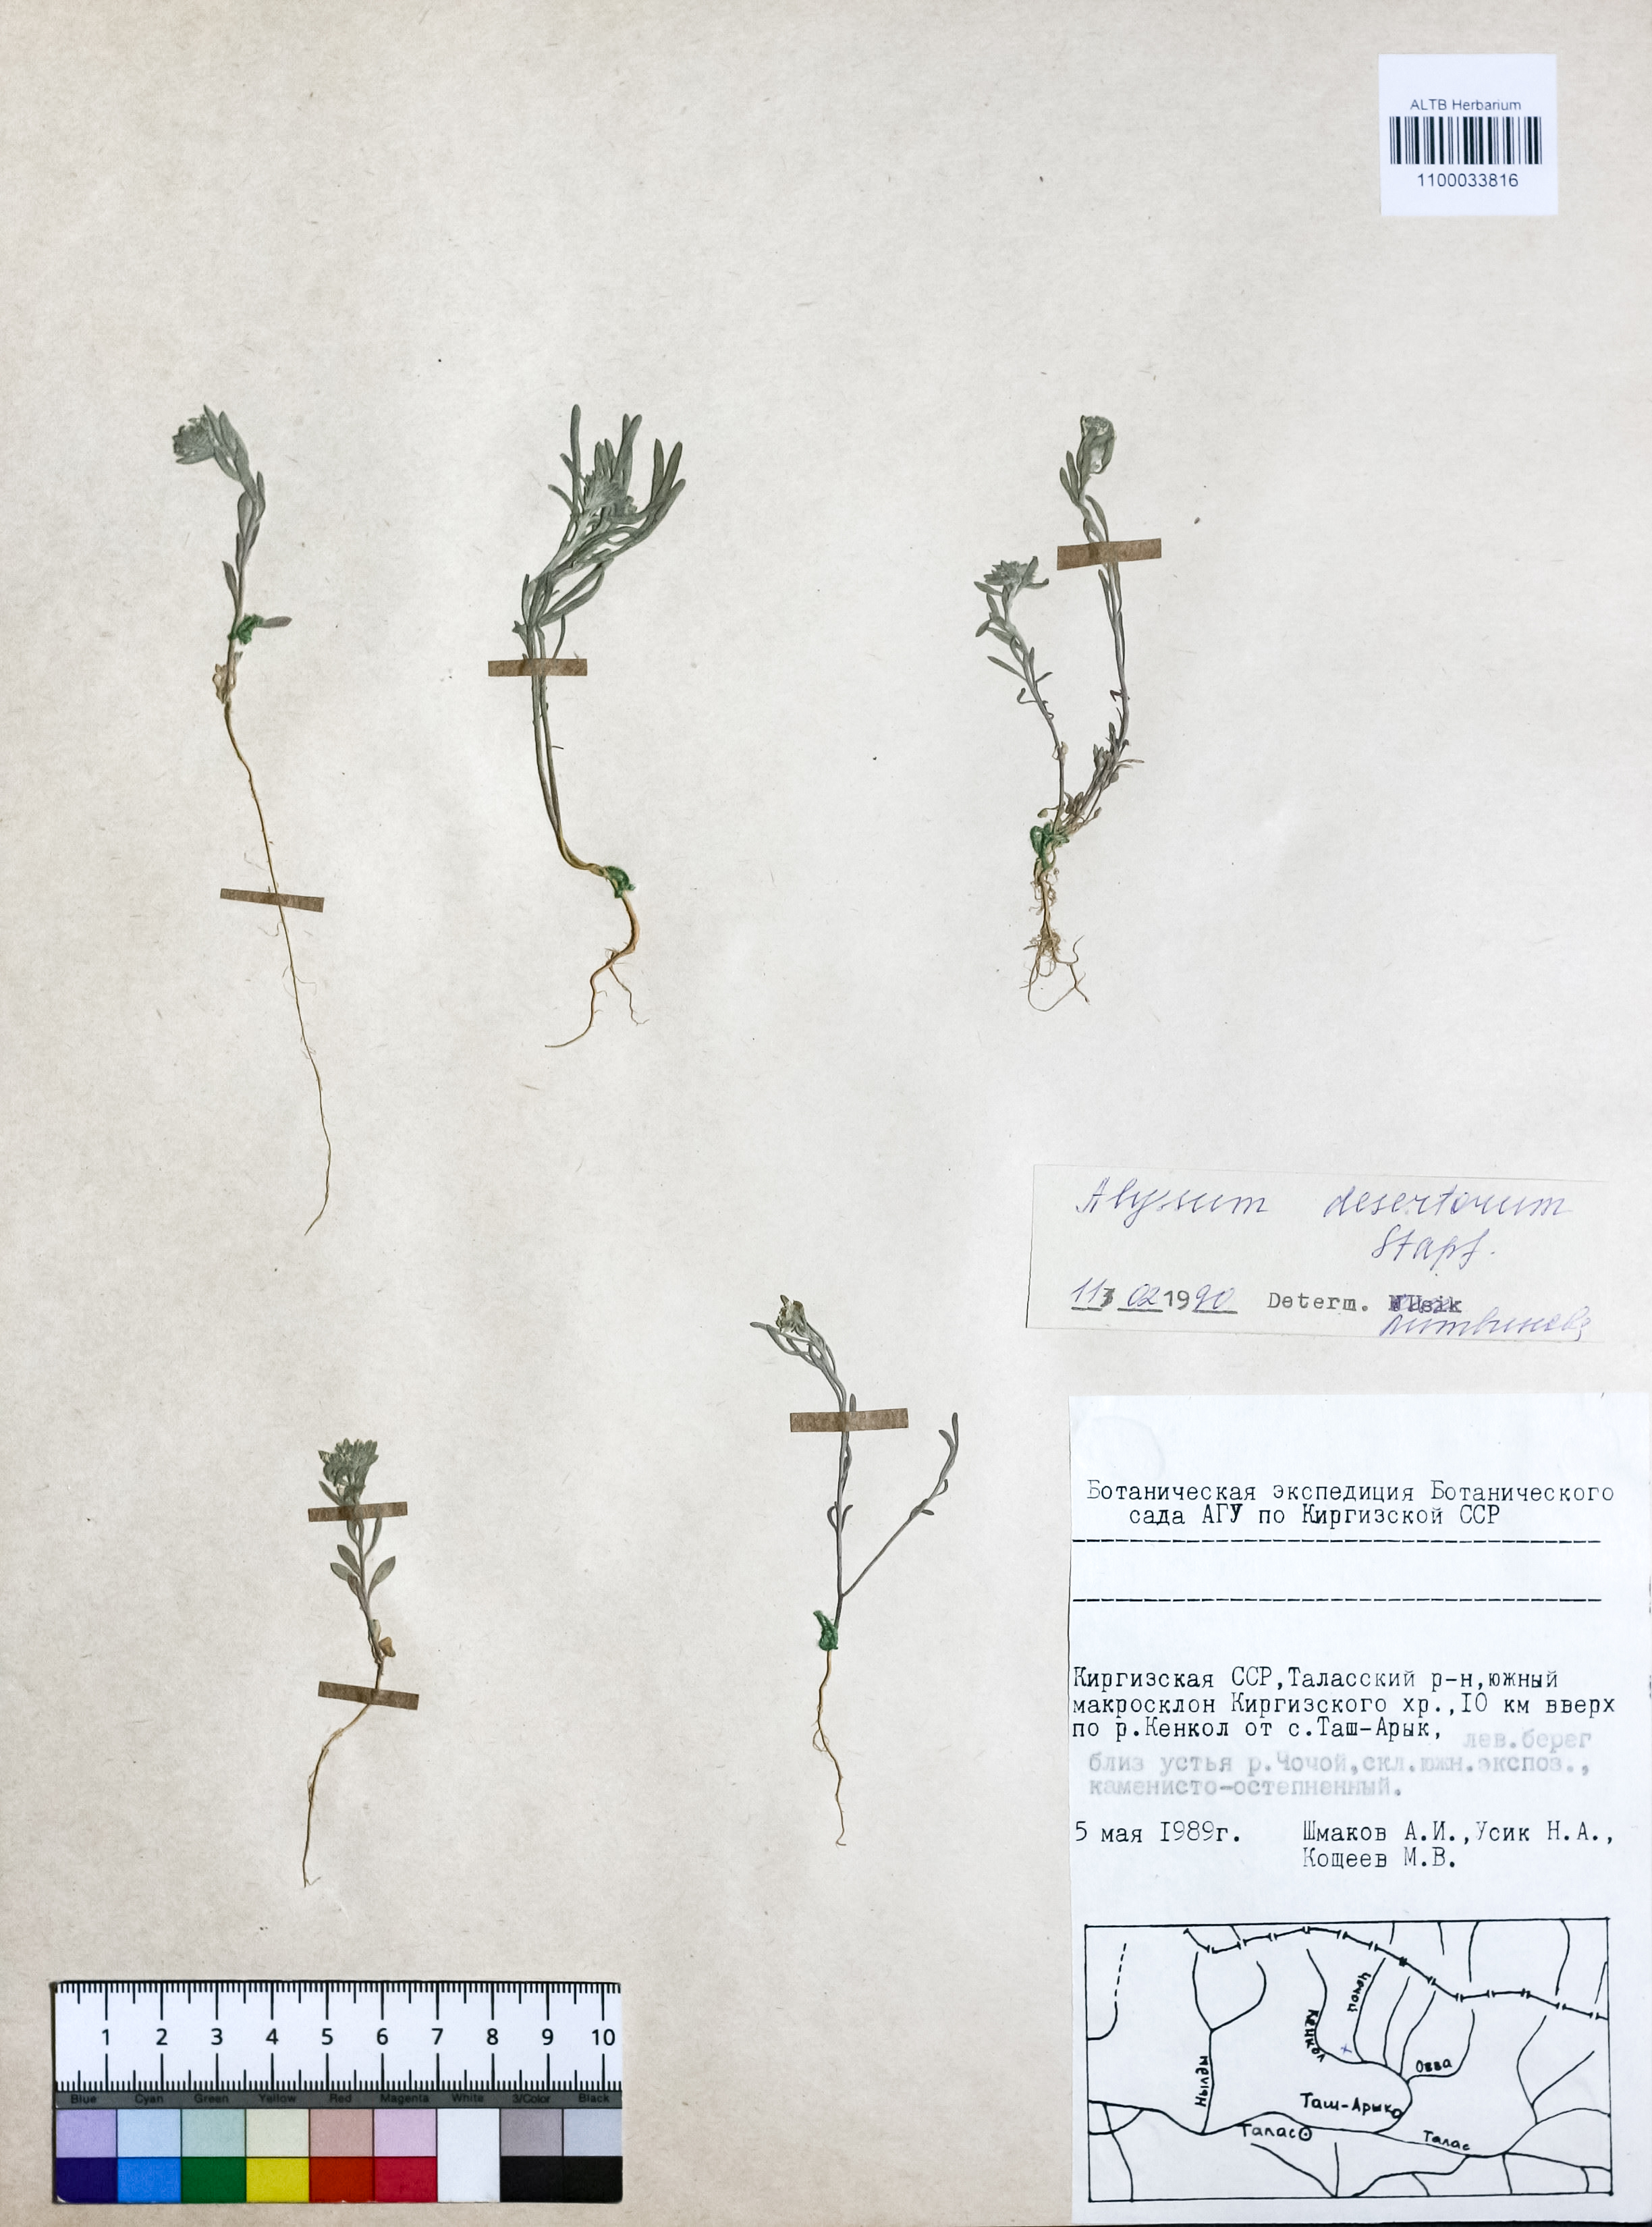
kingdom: Plantae
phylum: Tracheophyta
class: Magnoliopsida
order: Brassicales
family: Brassicaceae
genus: Alyssum
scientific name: Alyssum turkestanicum
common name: Desert alyssum
